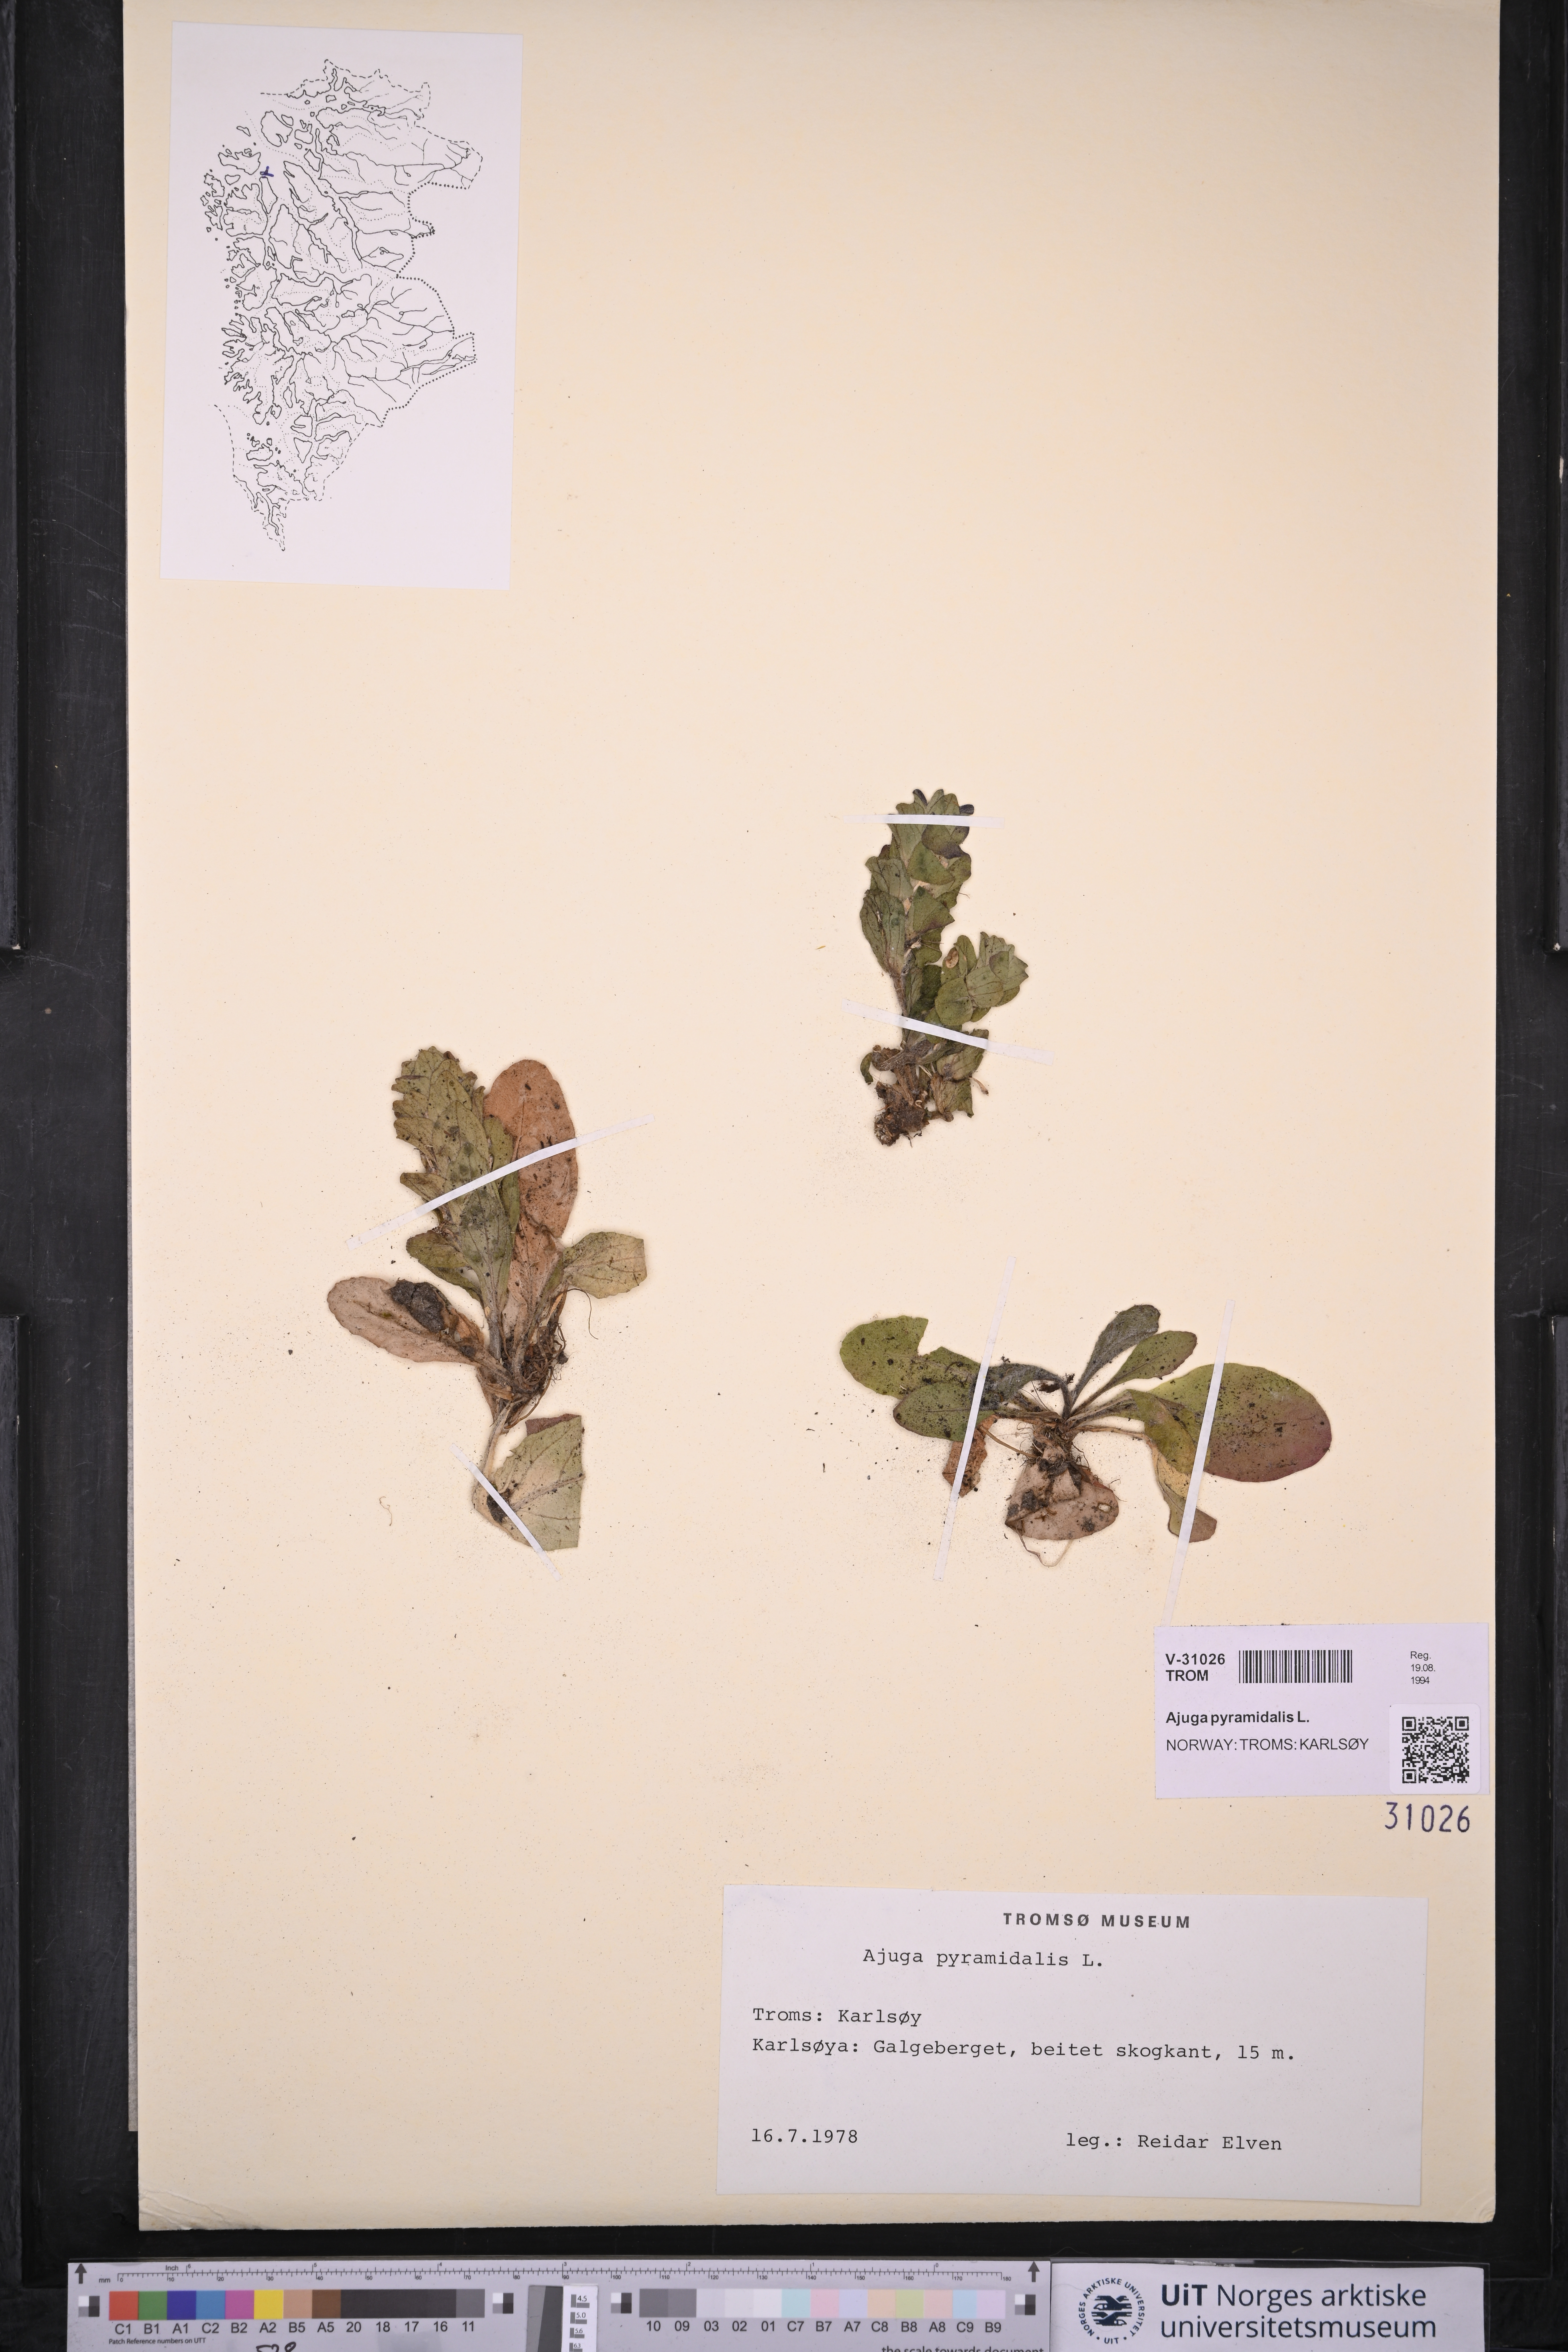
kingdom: Plantae
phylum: Tracheophyta
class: Magnoliopsida
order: Lamiales
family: Lamiaceae
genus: Ajuga
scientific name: Ajuga pyramidalis
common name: Pyramid bugle
